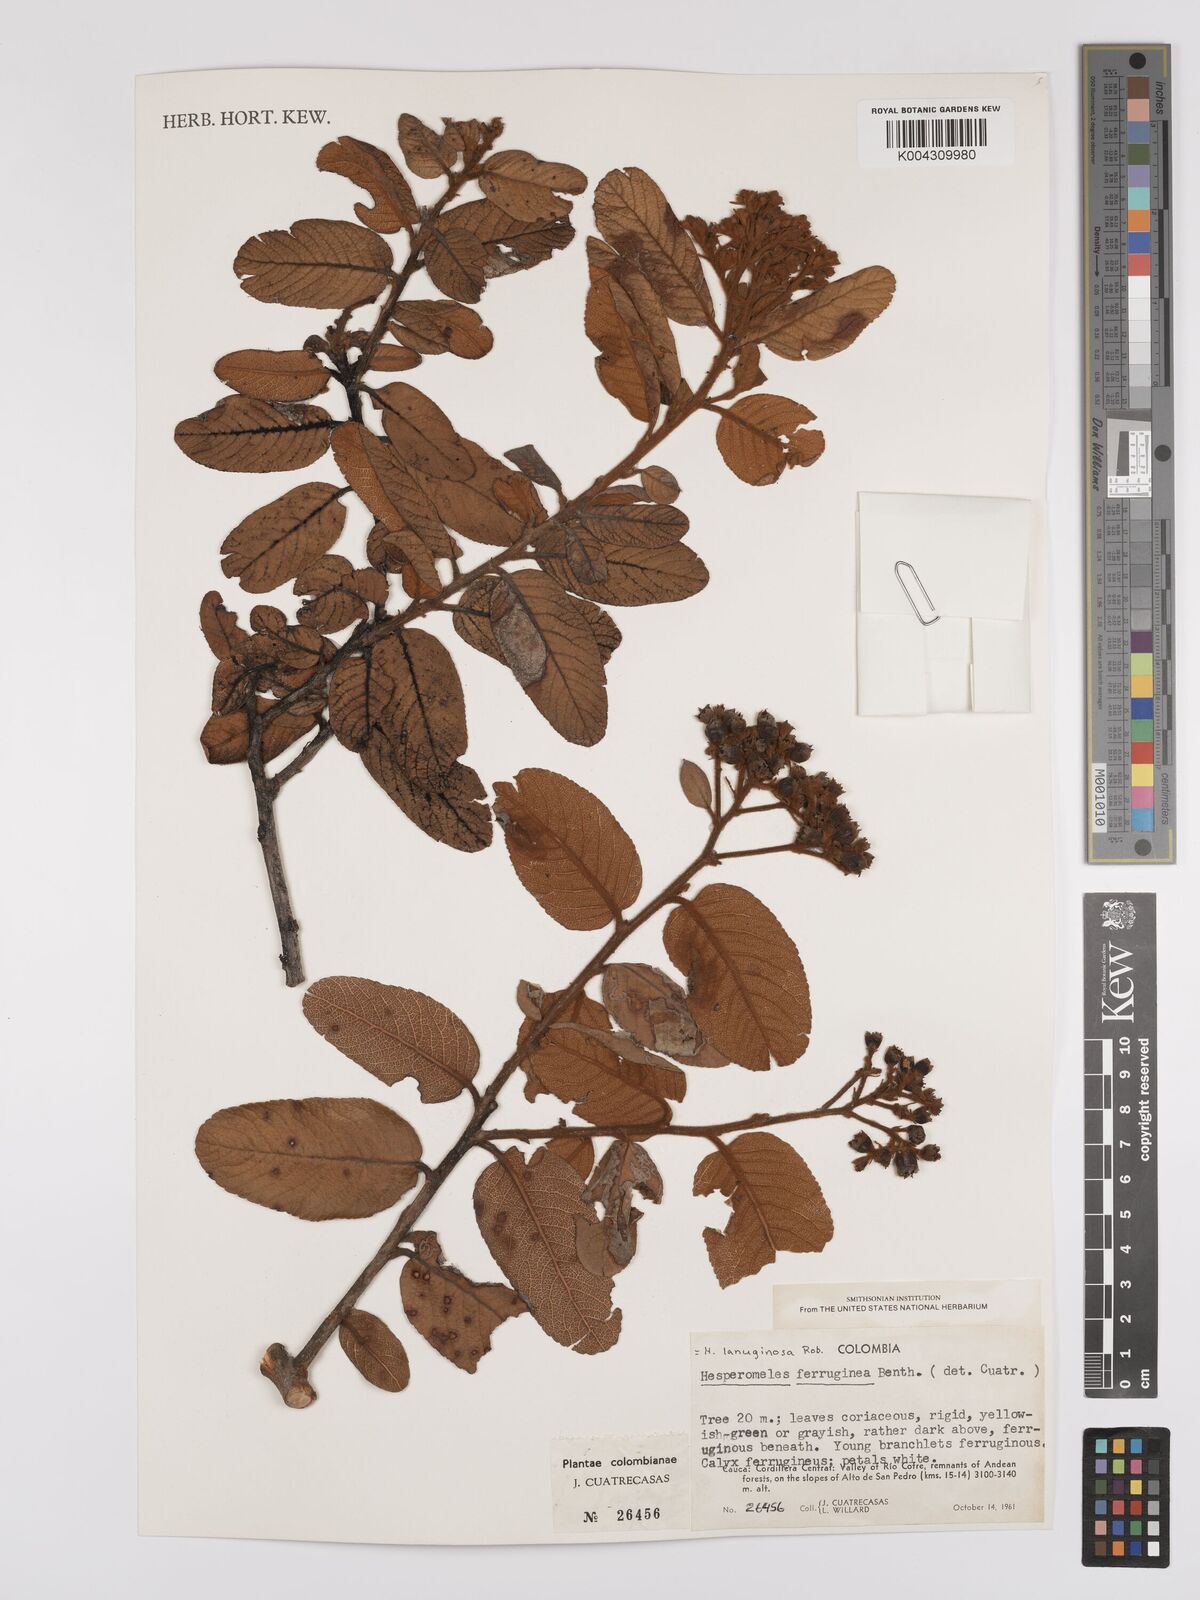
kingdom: Plantae
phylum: Tracheophyta
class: Magnoliopsida
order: Rosales
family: Rosaceae
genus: Hesperomeles
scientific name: Hesperomeles ferruginea
